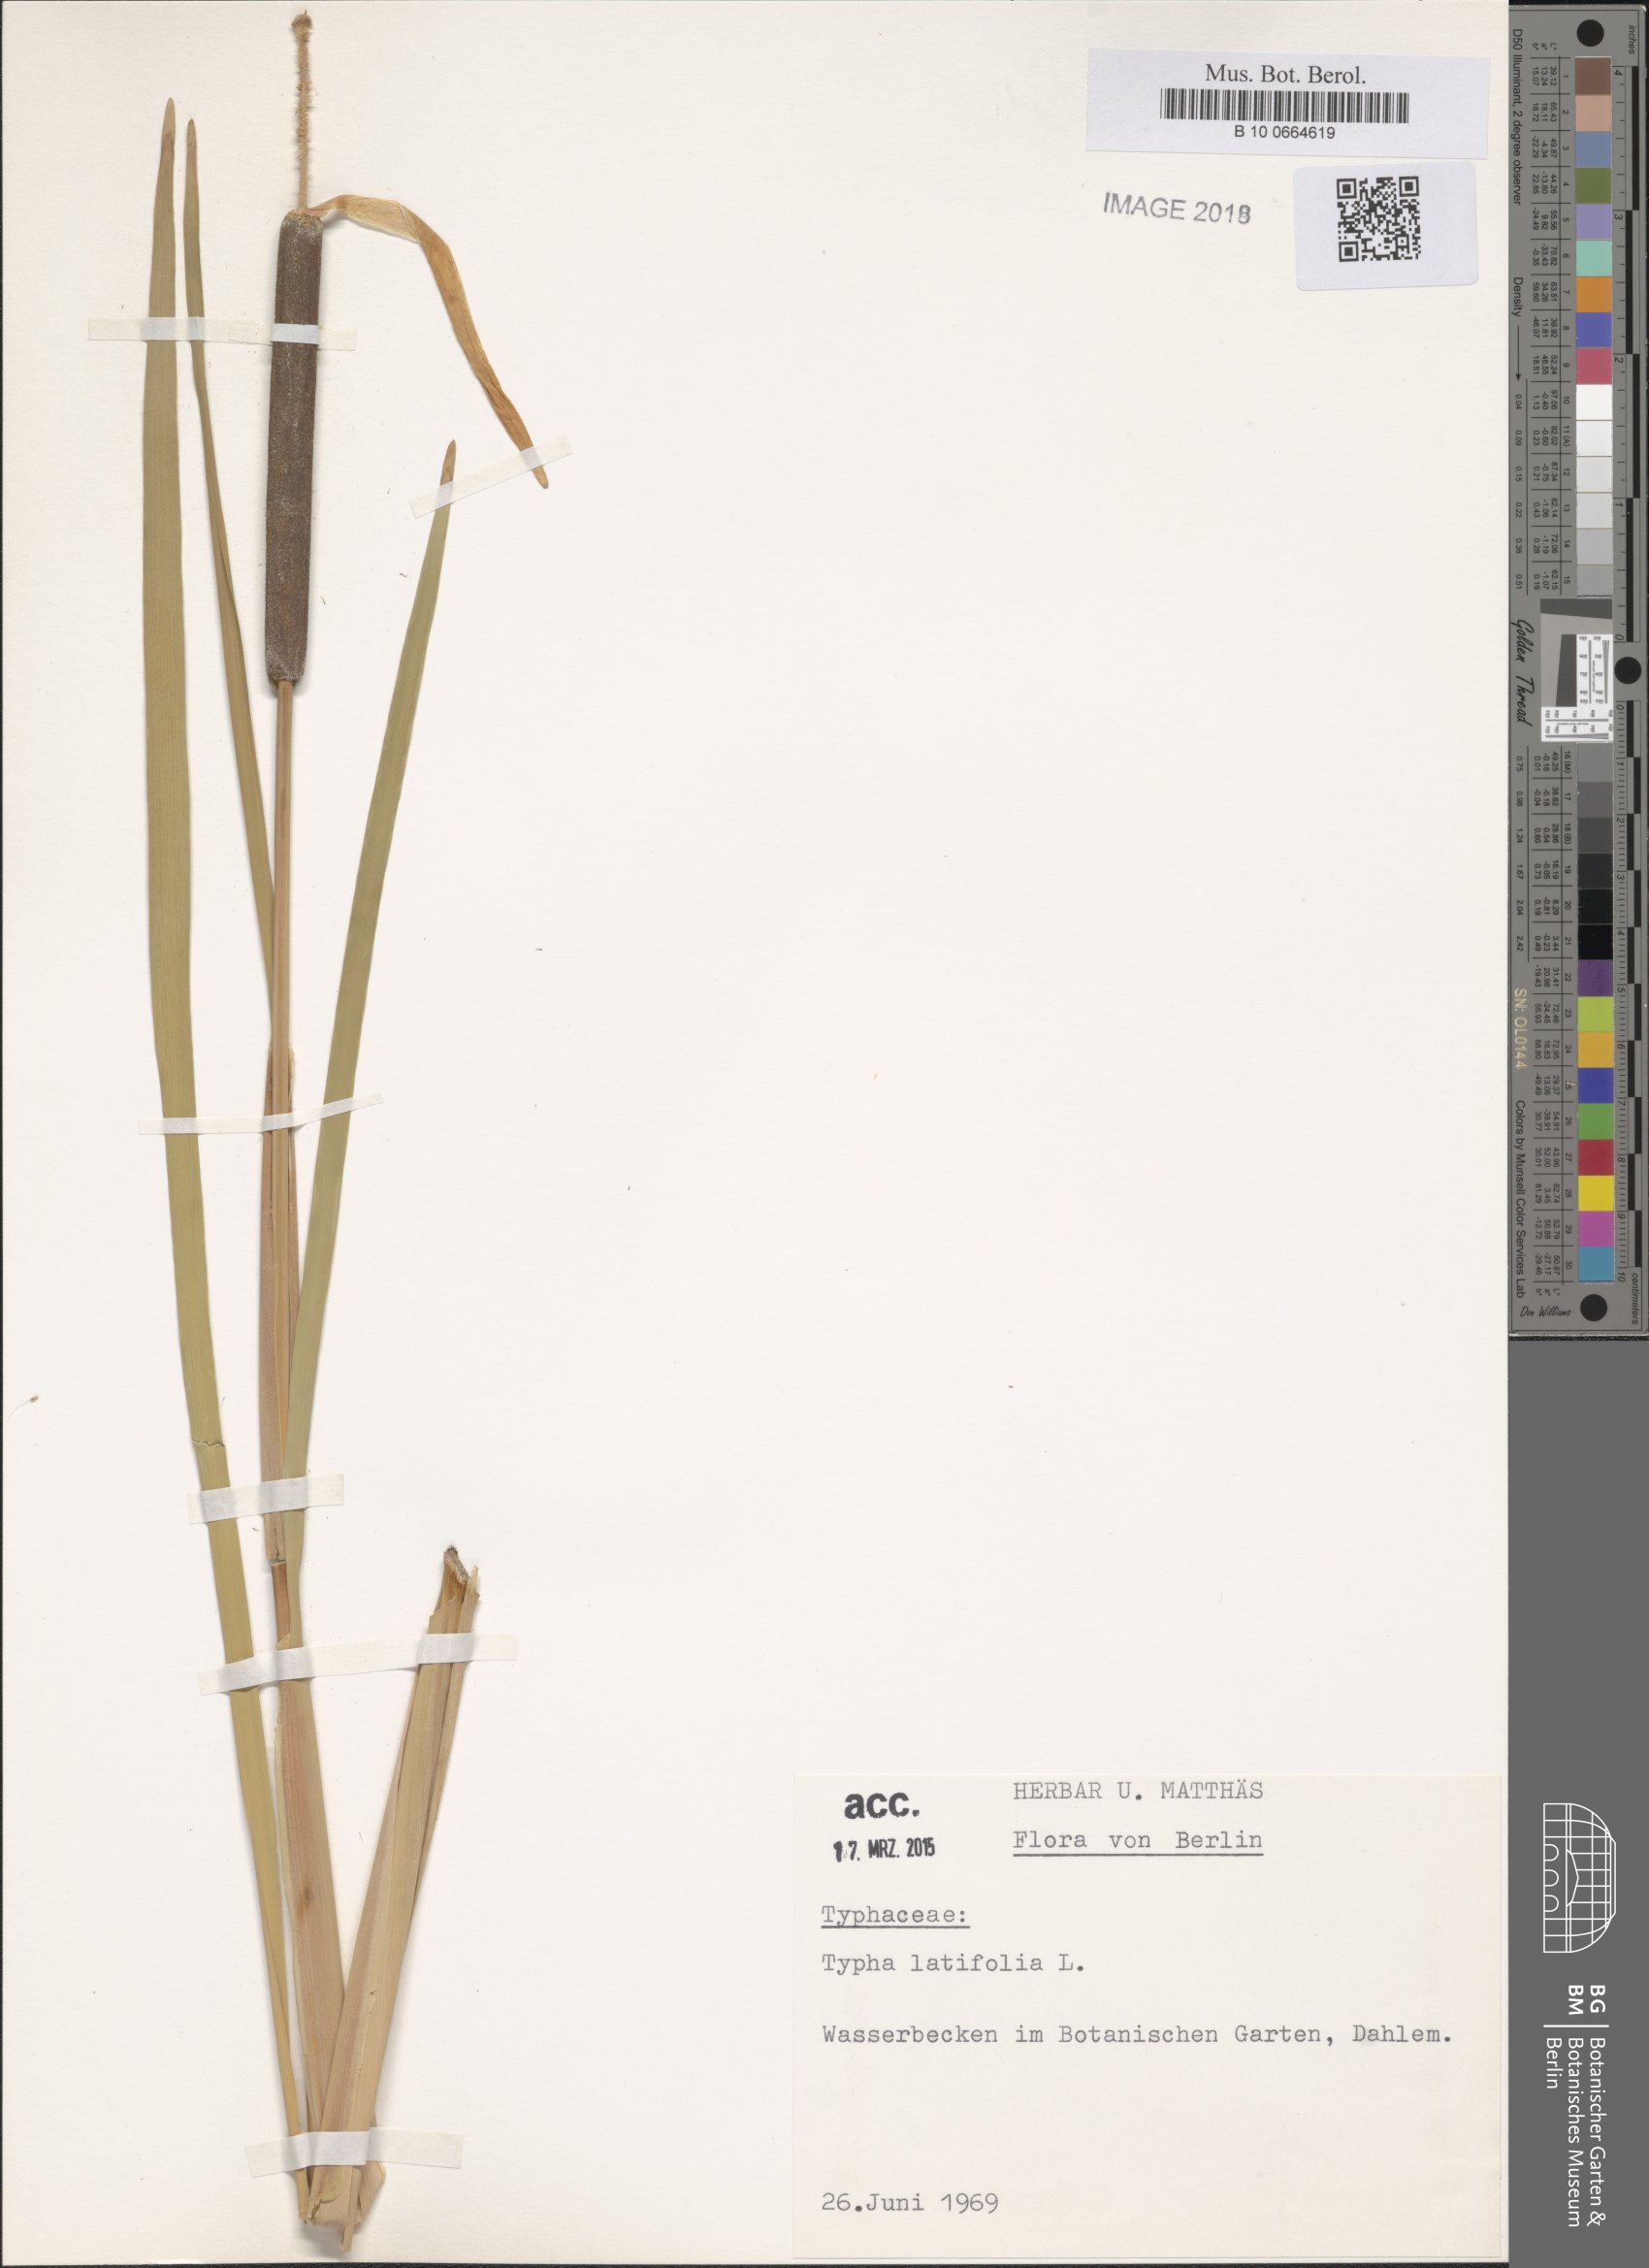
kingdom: Plantae
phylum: Tracheophyta
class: Liliopsida
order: Poales
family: Typhaceae
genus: Thypha
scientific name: Thypha
